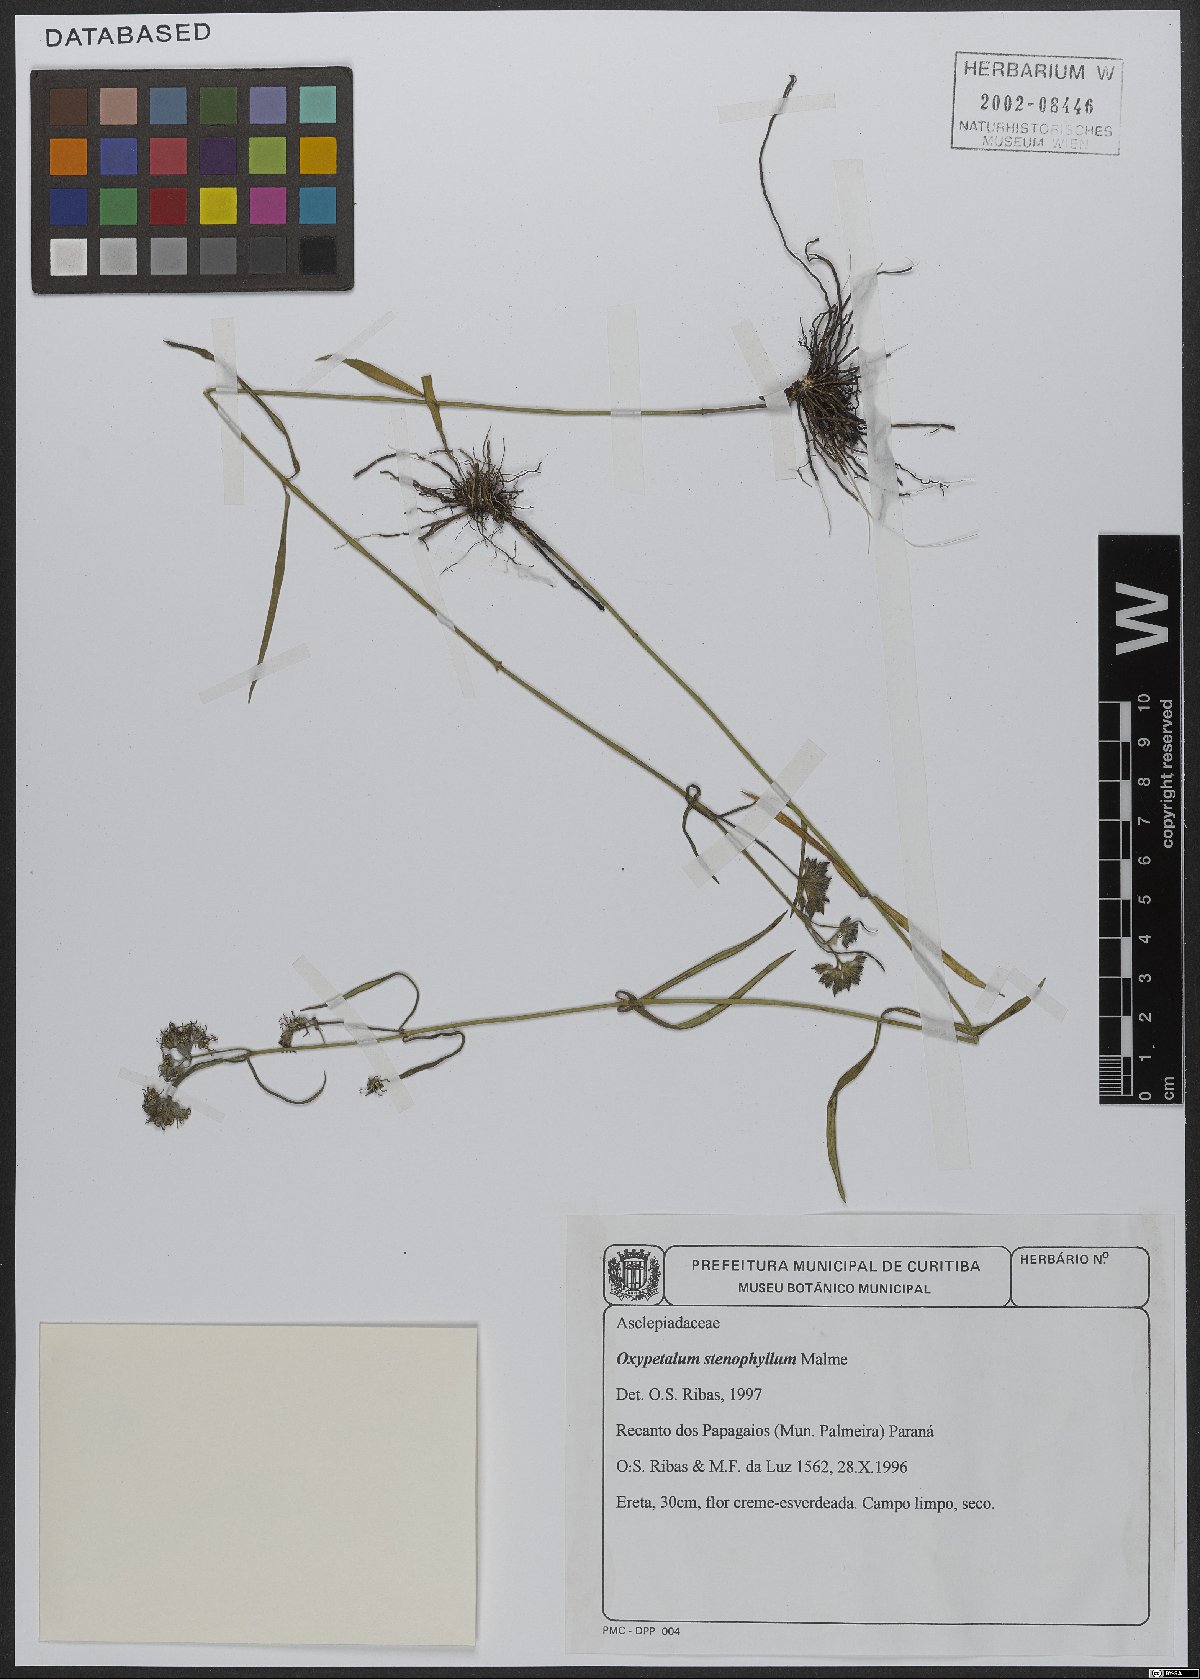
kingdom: Plantae
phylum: Tracheophyta
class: Magnoliopsida
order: Gentianales
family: Apocynaceae
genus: Oxypetalum
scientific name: Oxypetalum aequaliflorum
